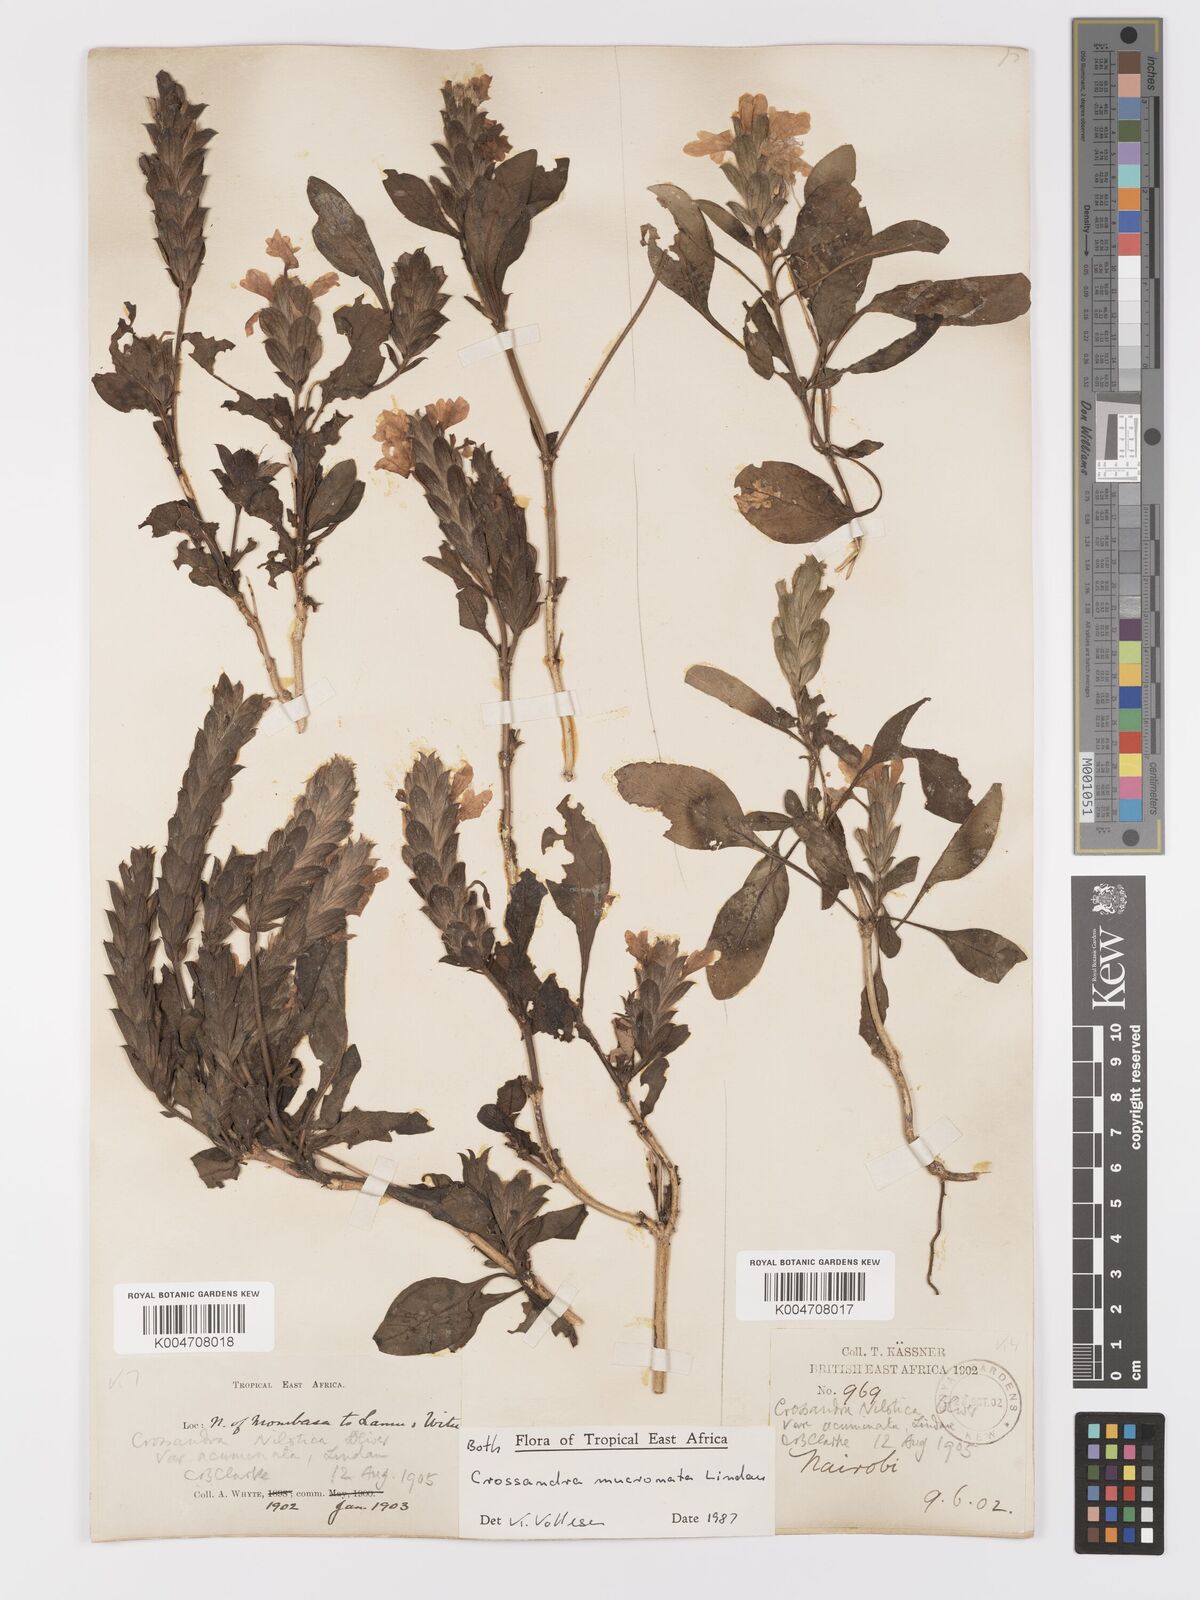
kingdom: Plantae
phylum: Tracheophyta
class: Magnoliopsida
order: Lamiales
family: Acanthaceae
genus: Crossandra
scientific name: Crossandra mucronata
